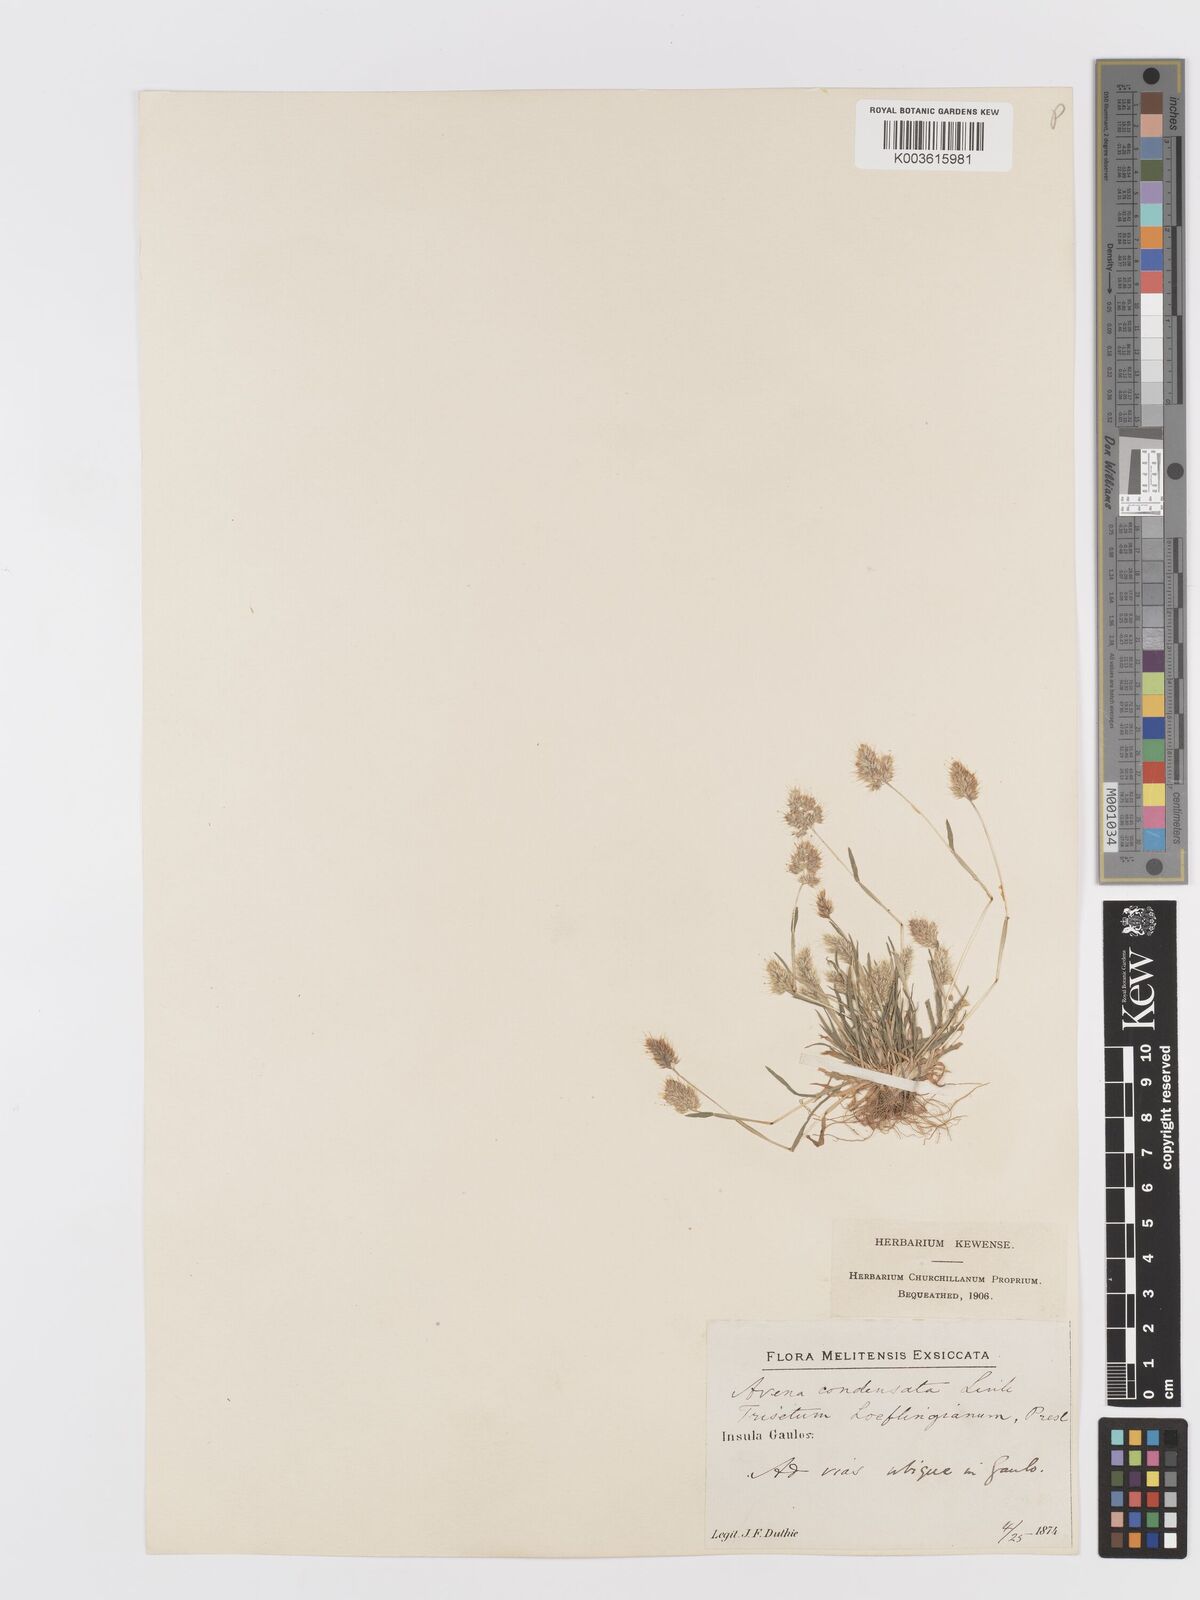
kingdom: Plantae
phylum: Tracheophyta
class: Liliopsida
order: Poales
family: Poaceae
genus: Trisetaria
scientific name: Trisetaria aurea
